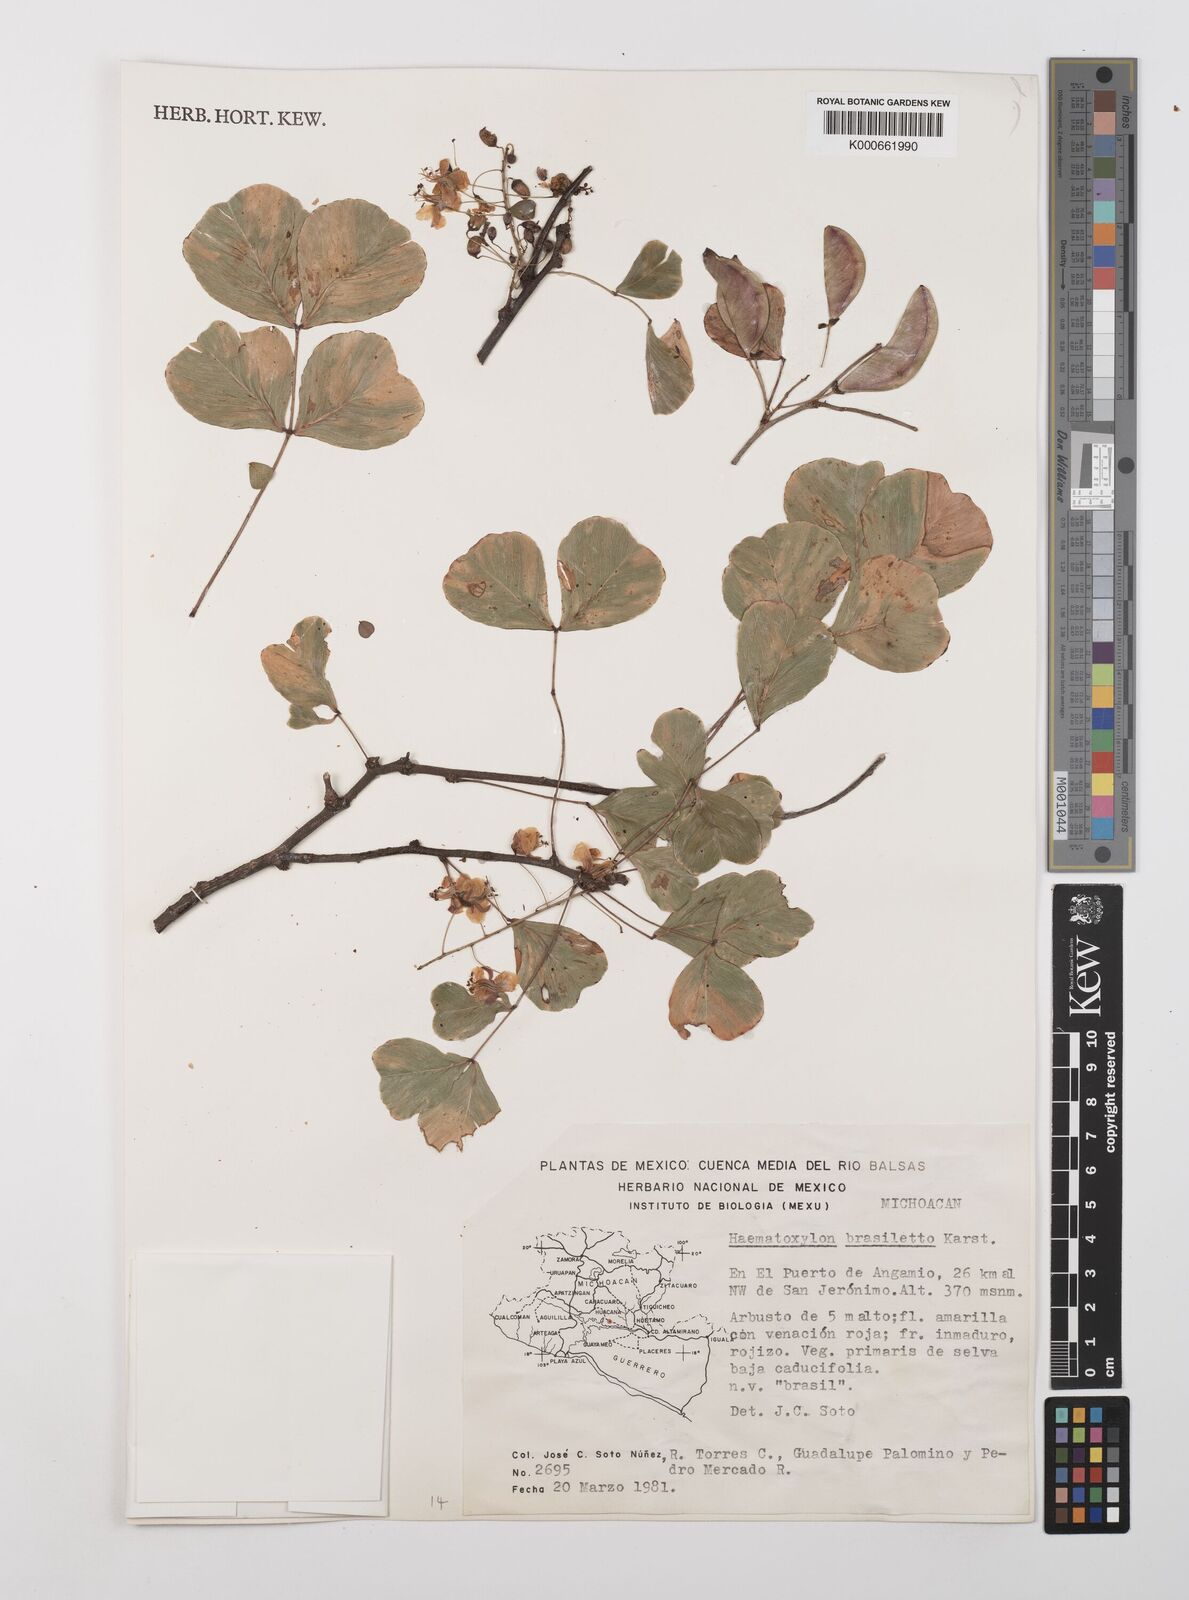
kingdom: Plantae
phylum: Tracheophyta
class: Magnoliopsida
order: Fabales
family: Fabaceae
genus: Haematoxylum
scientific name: Haematoxylum brasiletto
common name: Peachwood
